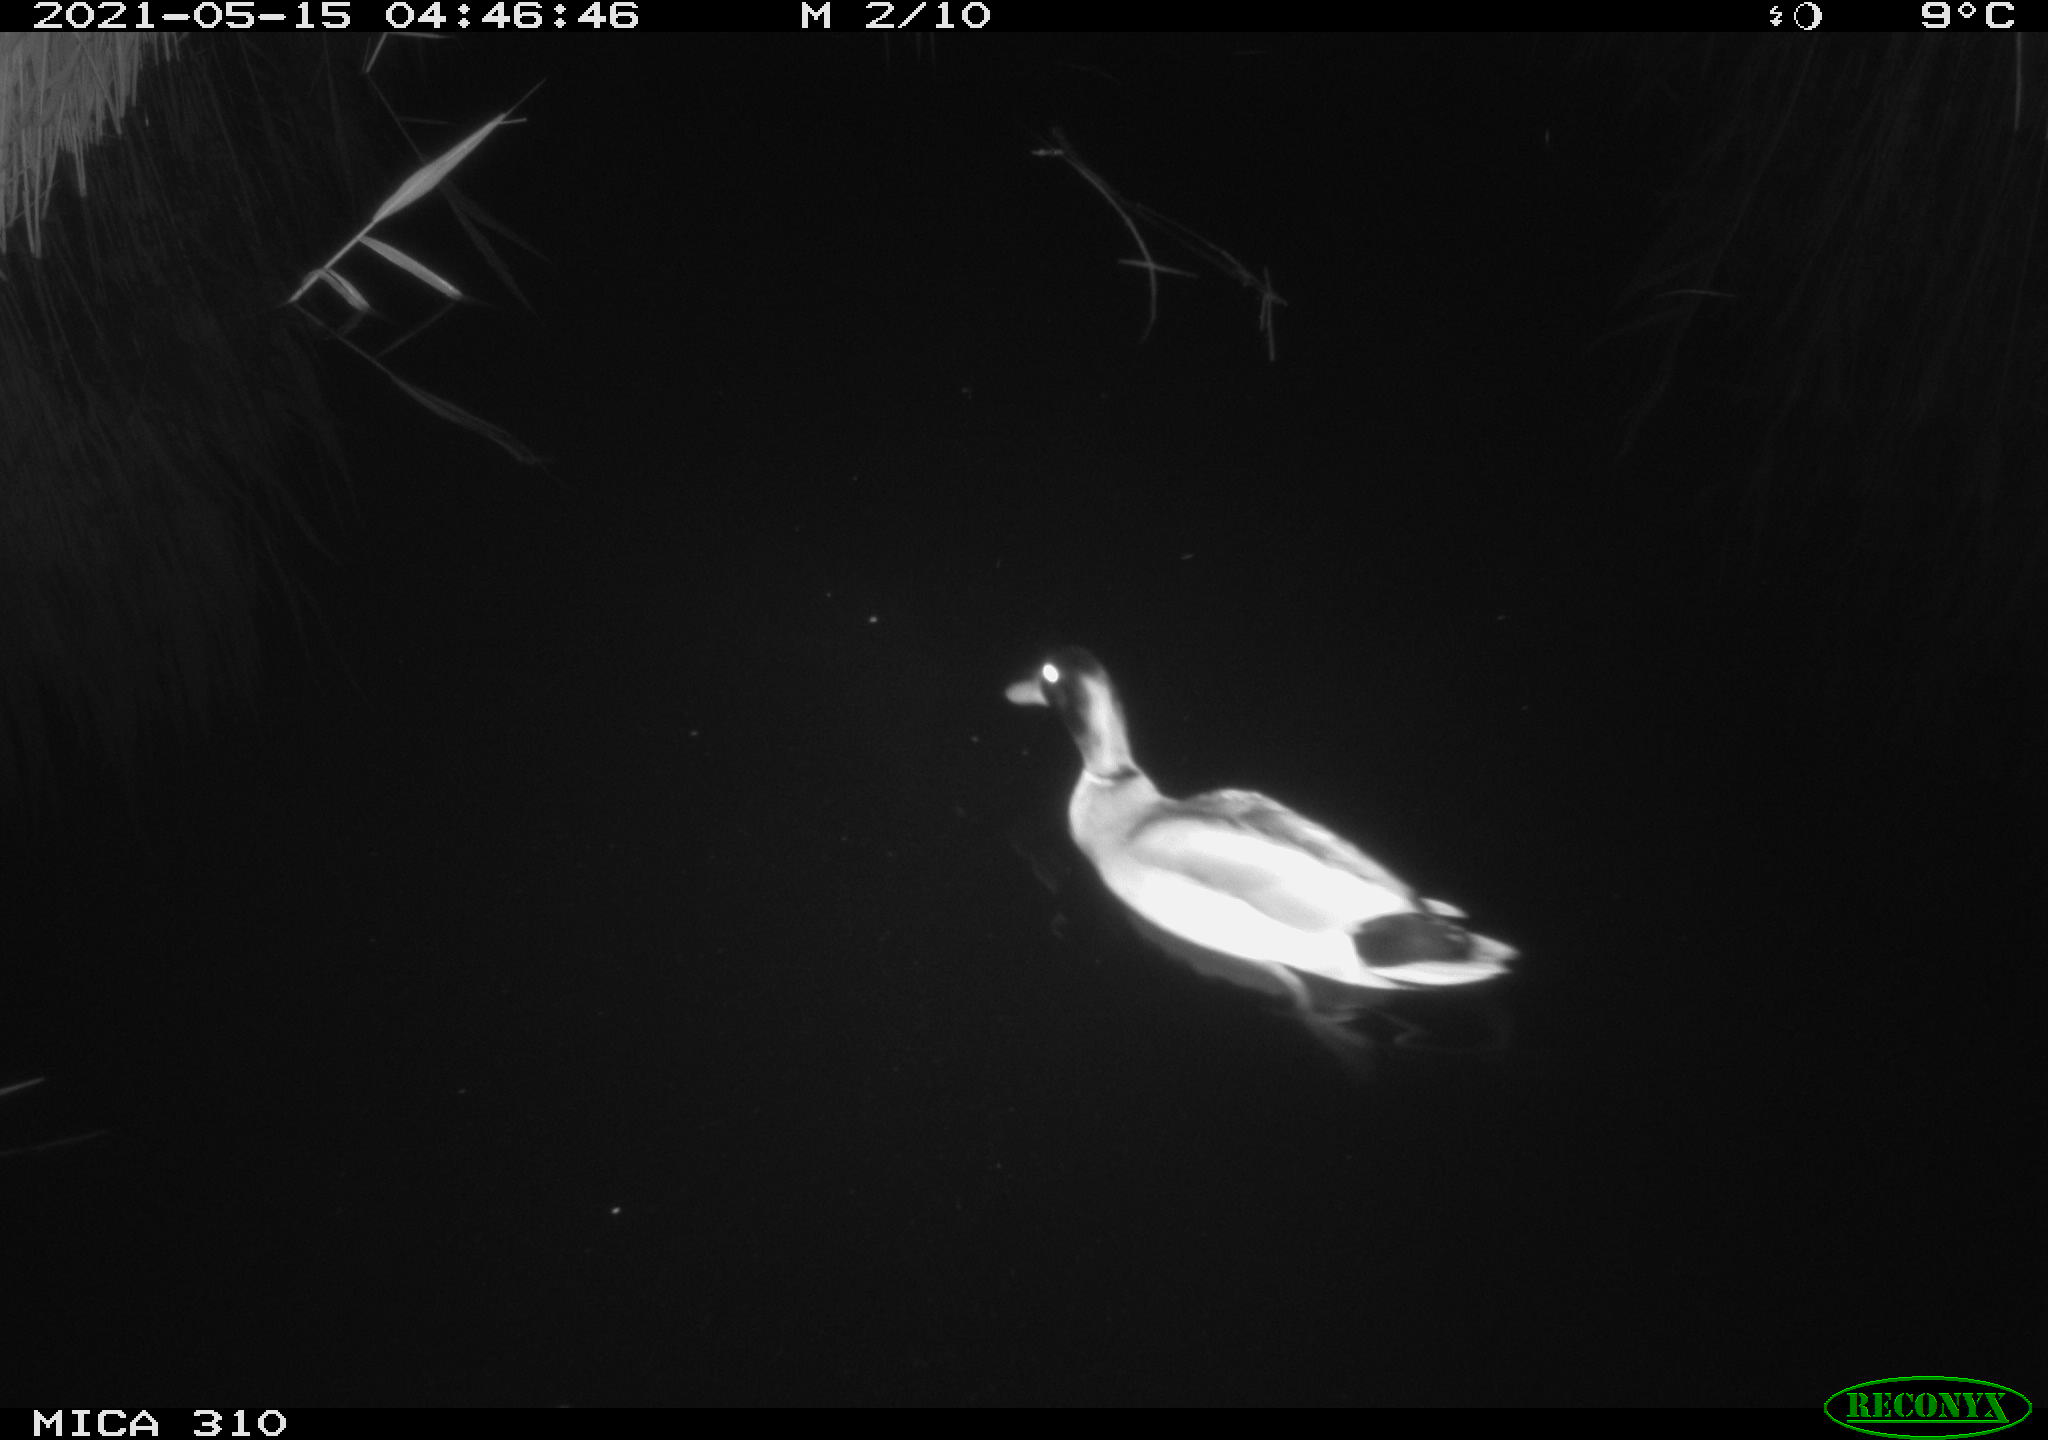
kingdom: Animalia
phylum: Chordata
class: Aves
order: Anseriformes
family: Anatidae
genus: Anas
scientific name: Anas platyrhynchos
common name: Mallard
